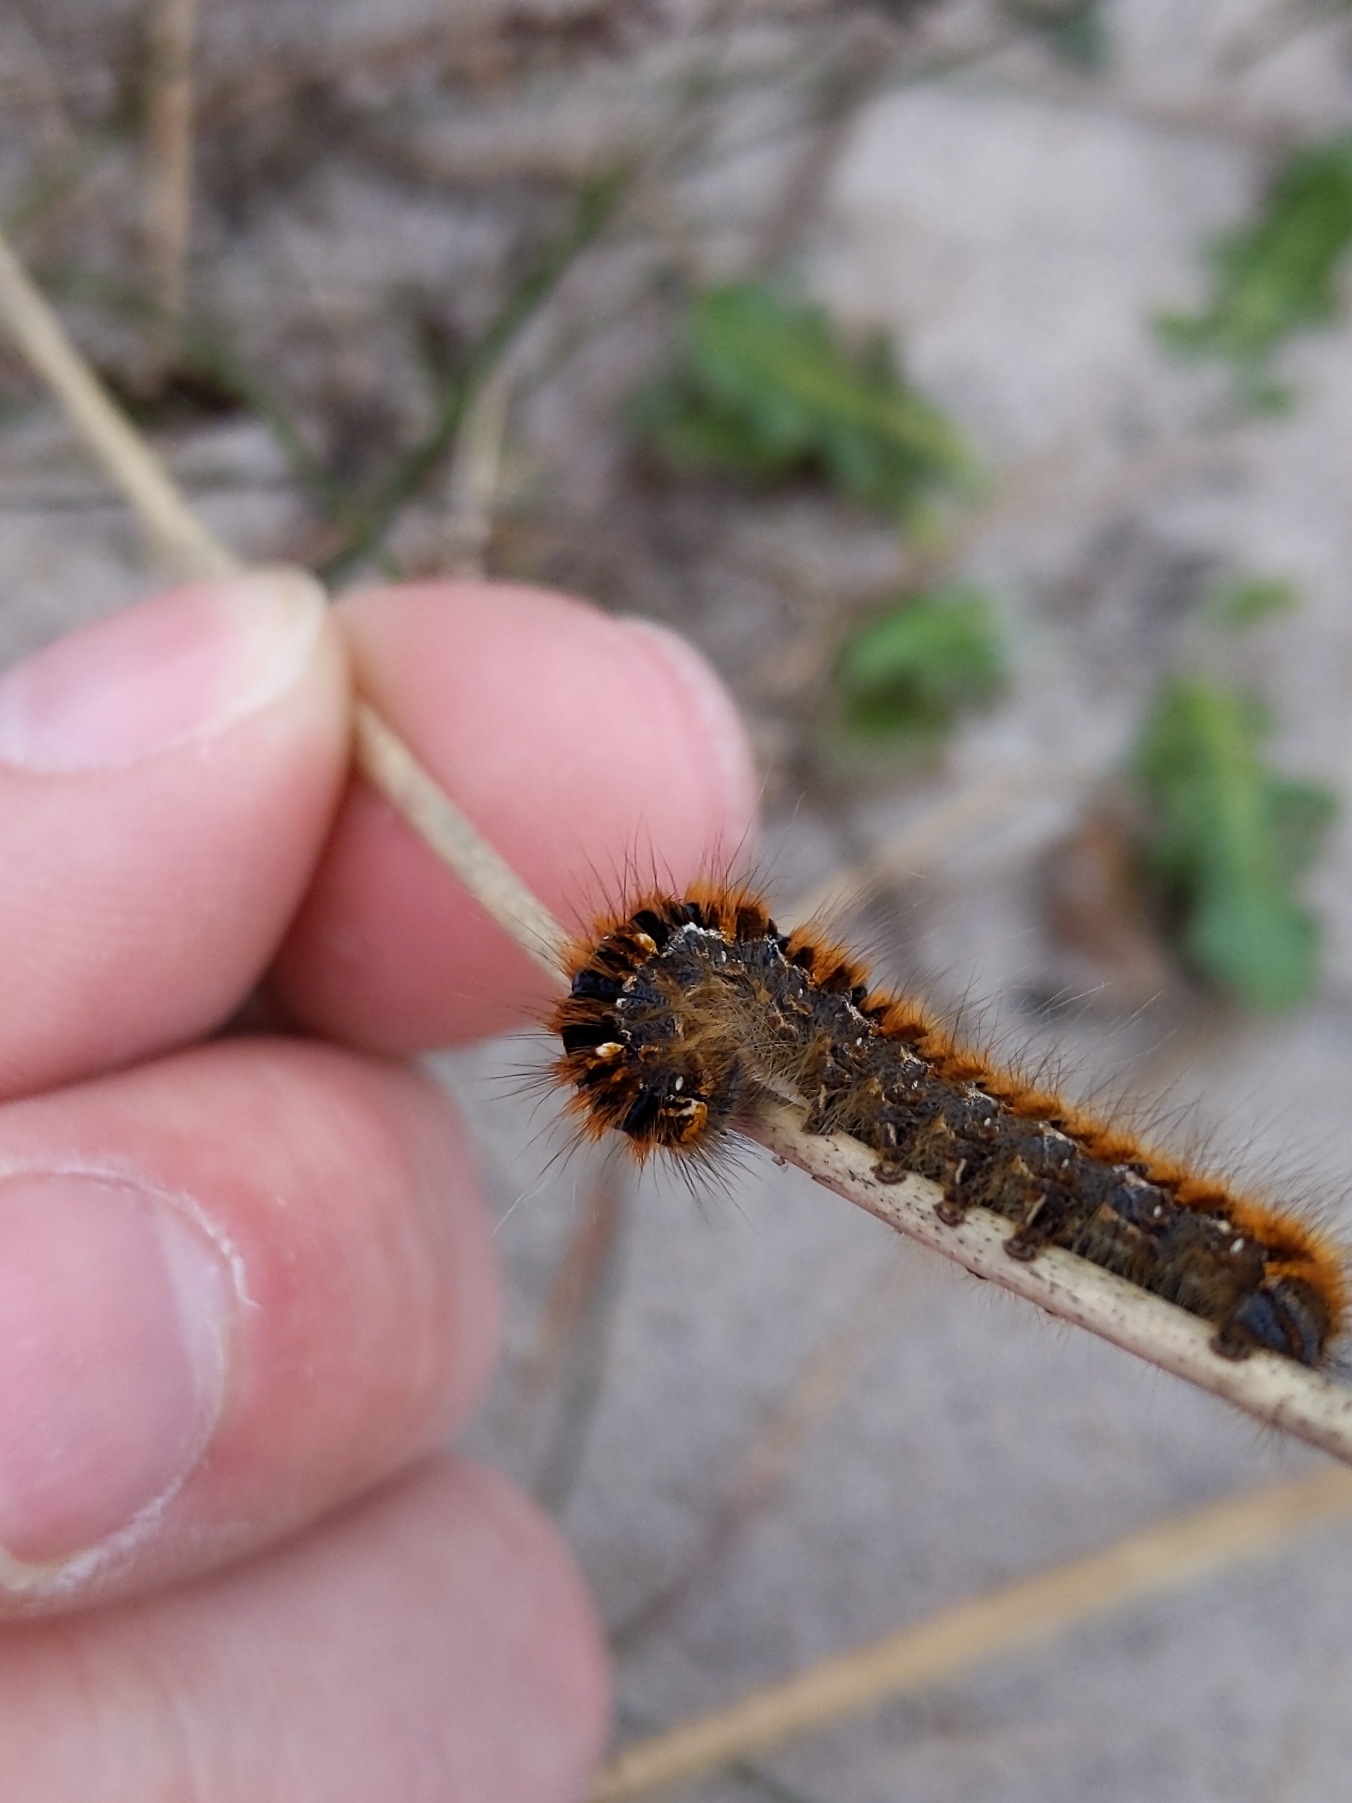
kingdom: Animalia
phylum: Arthropoda
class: Insecta
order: Lepidoptera
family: Lasiocampidae
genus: Lasiocampa
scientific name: Lasiocampa quercus
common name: Egespinder
